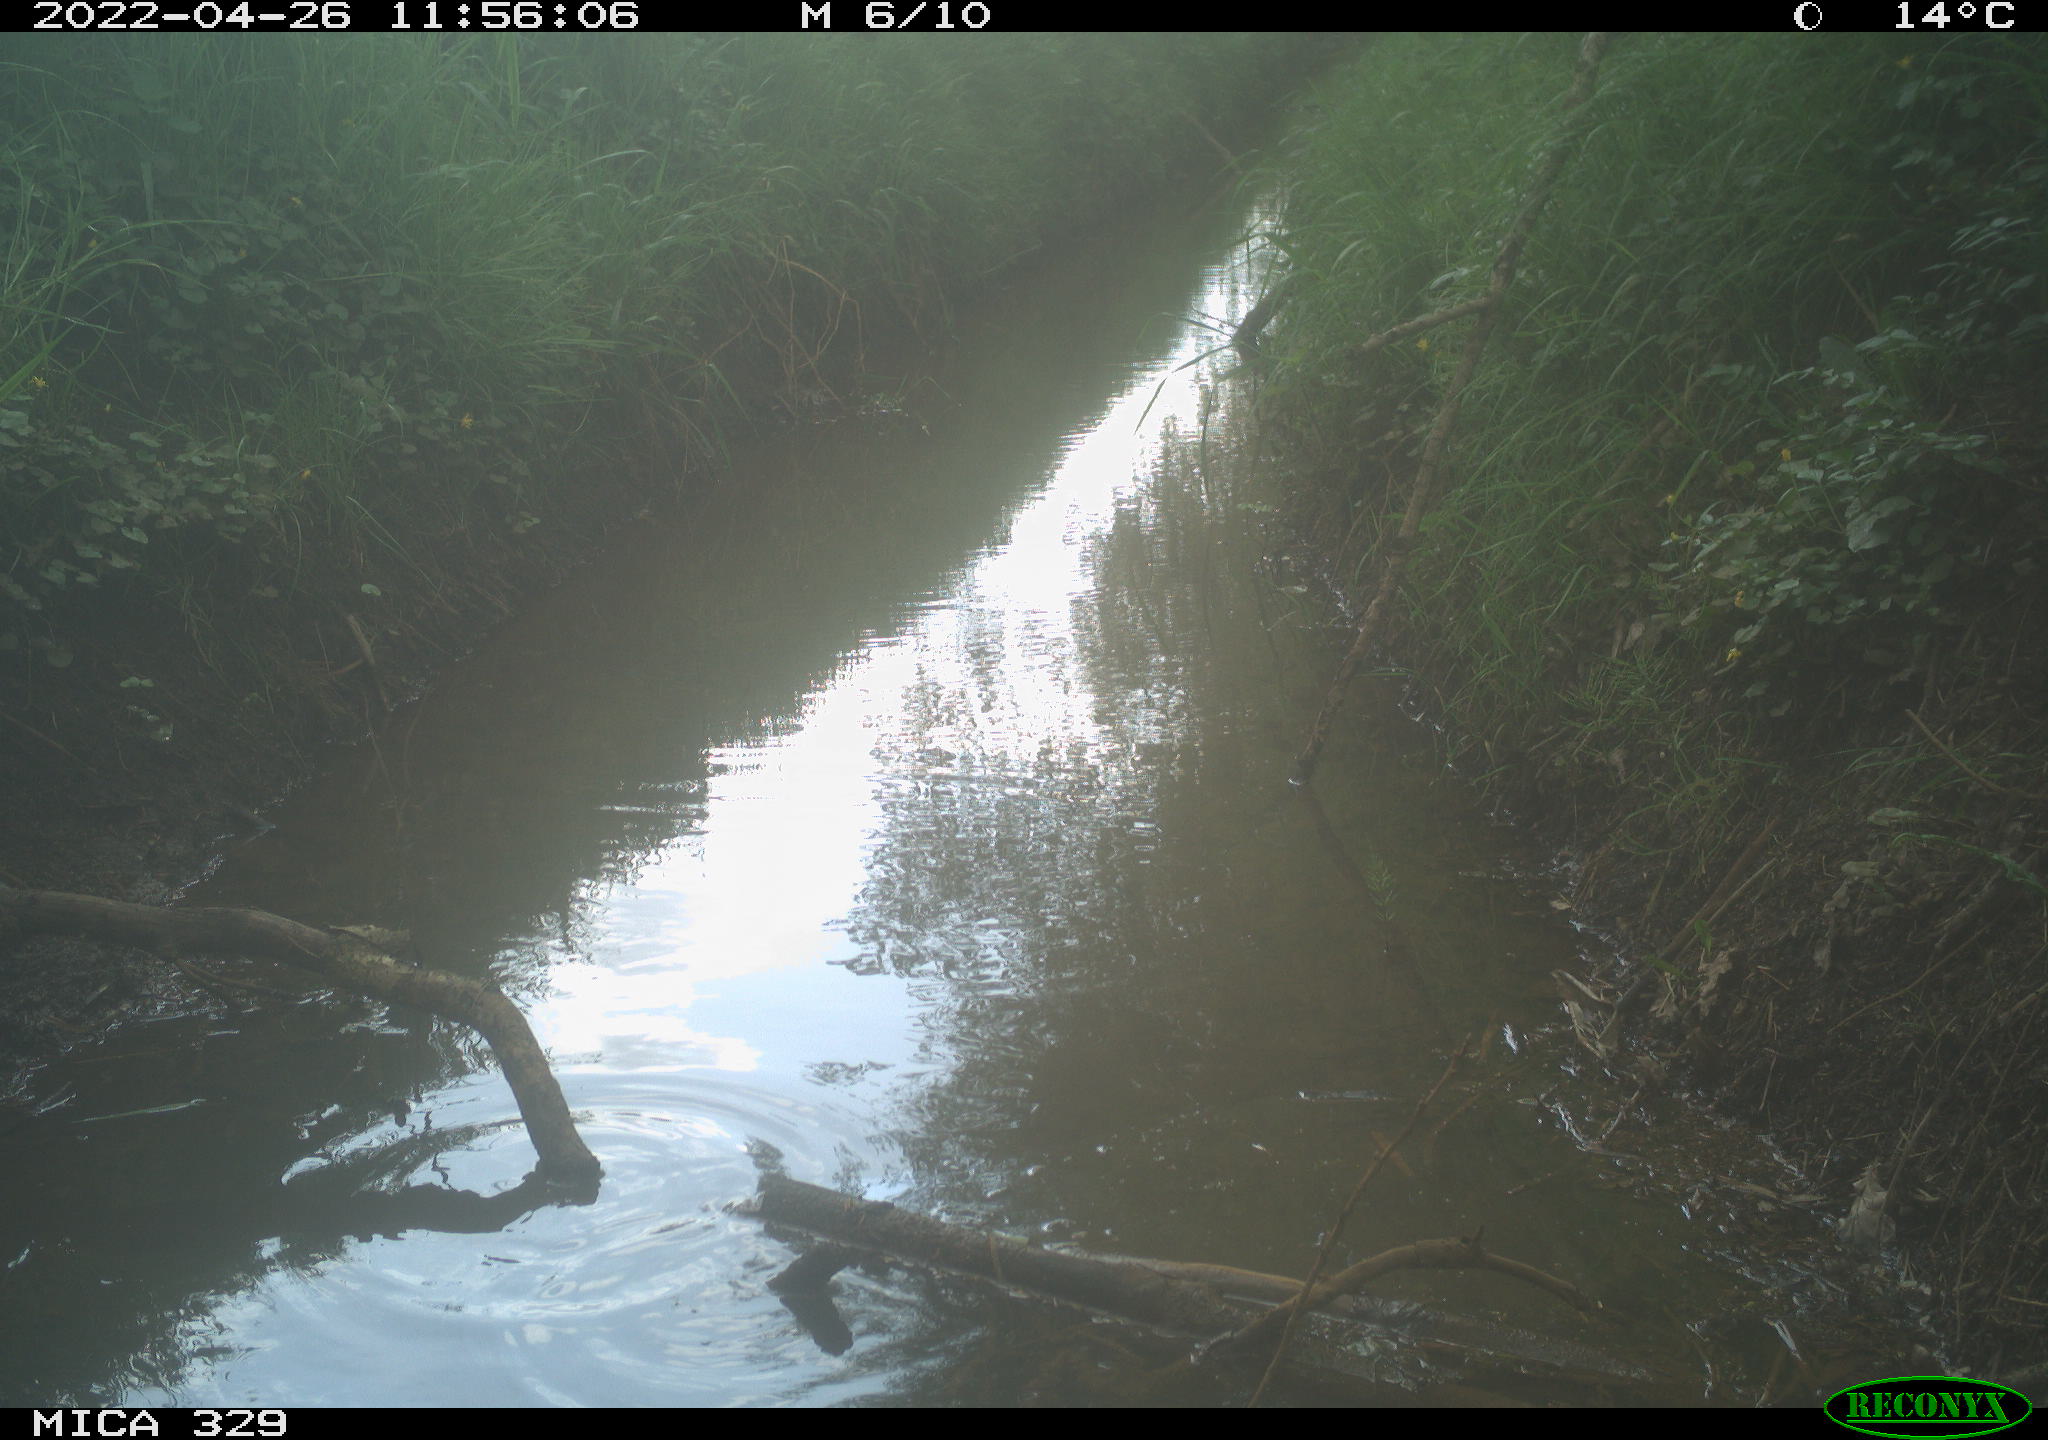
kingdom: Animalia
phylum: Chordata
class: Aves
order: Gruiformes
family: Rallidae
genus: Gallinula
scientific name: Gallinula chloropus
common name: Common moorhen
